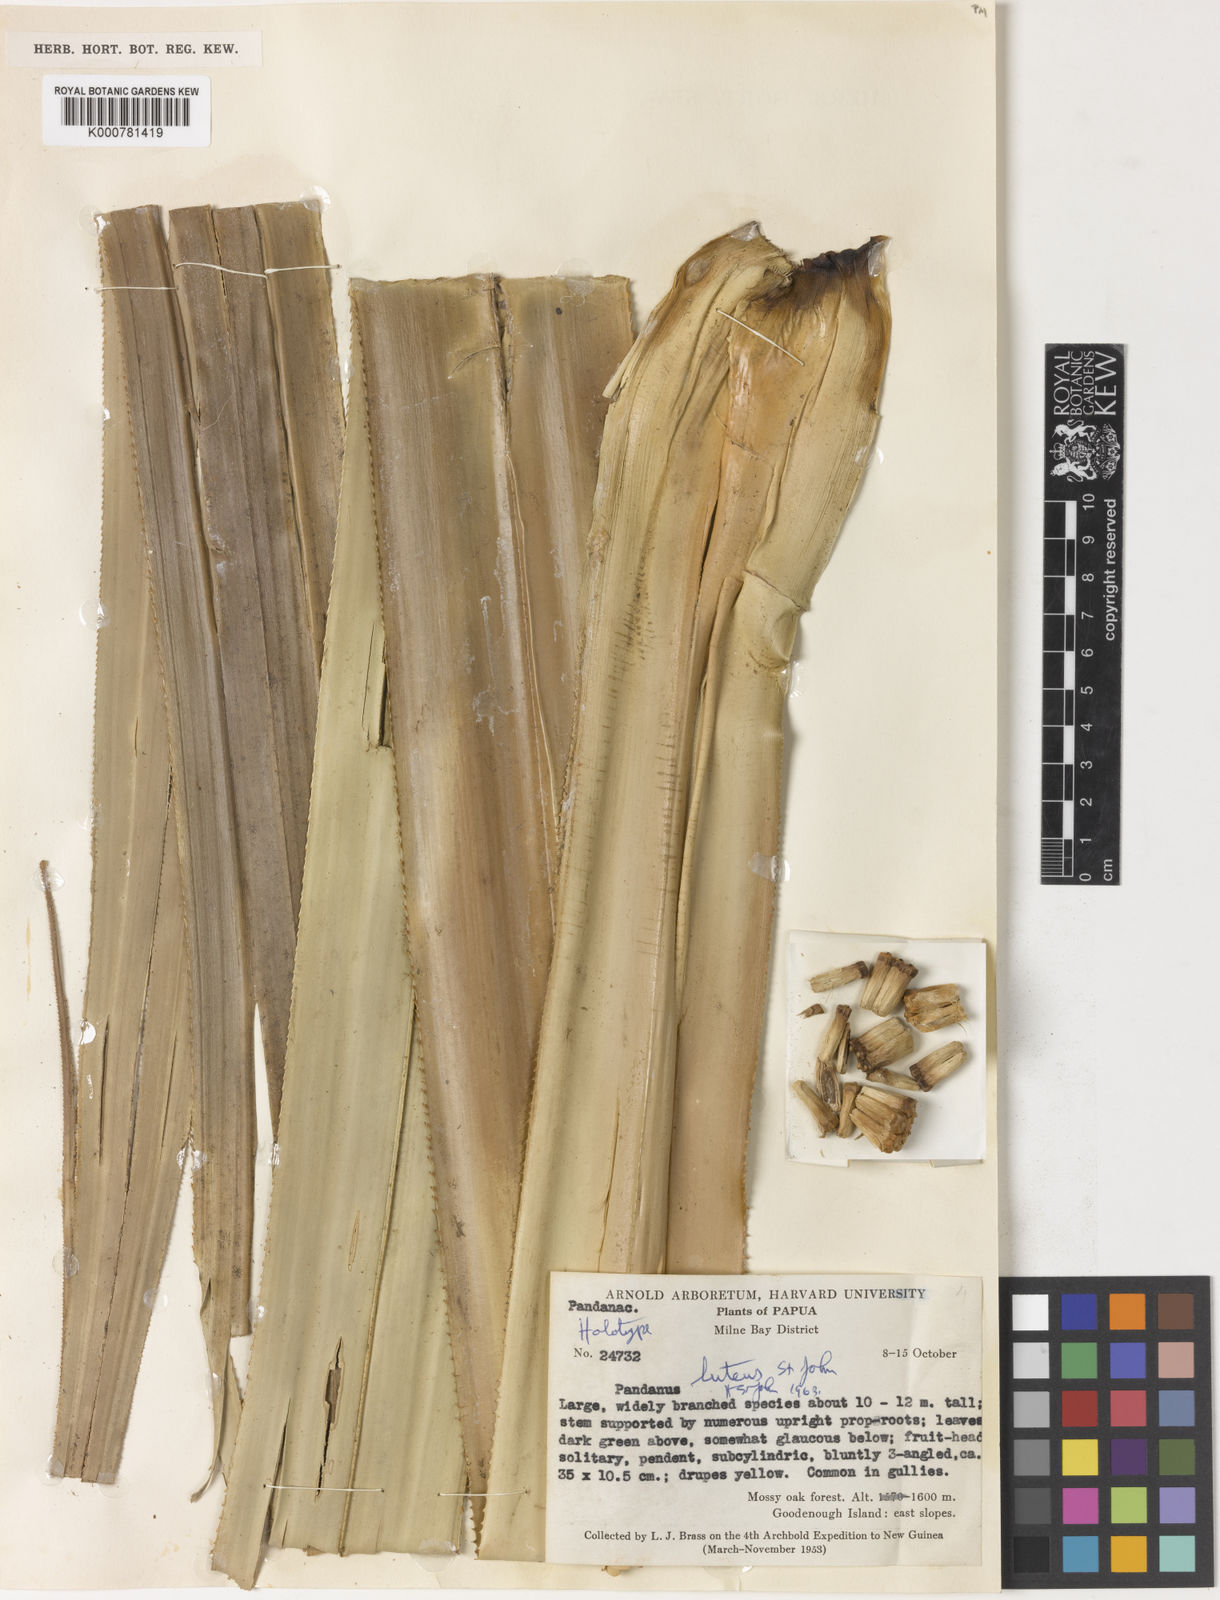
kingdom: Plantae
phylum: Tracheophyta
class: Liliopsida
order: Pandanales
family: Pandanaceae
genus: Pandanus
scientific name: Pandanus krauelianus
